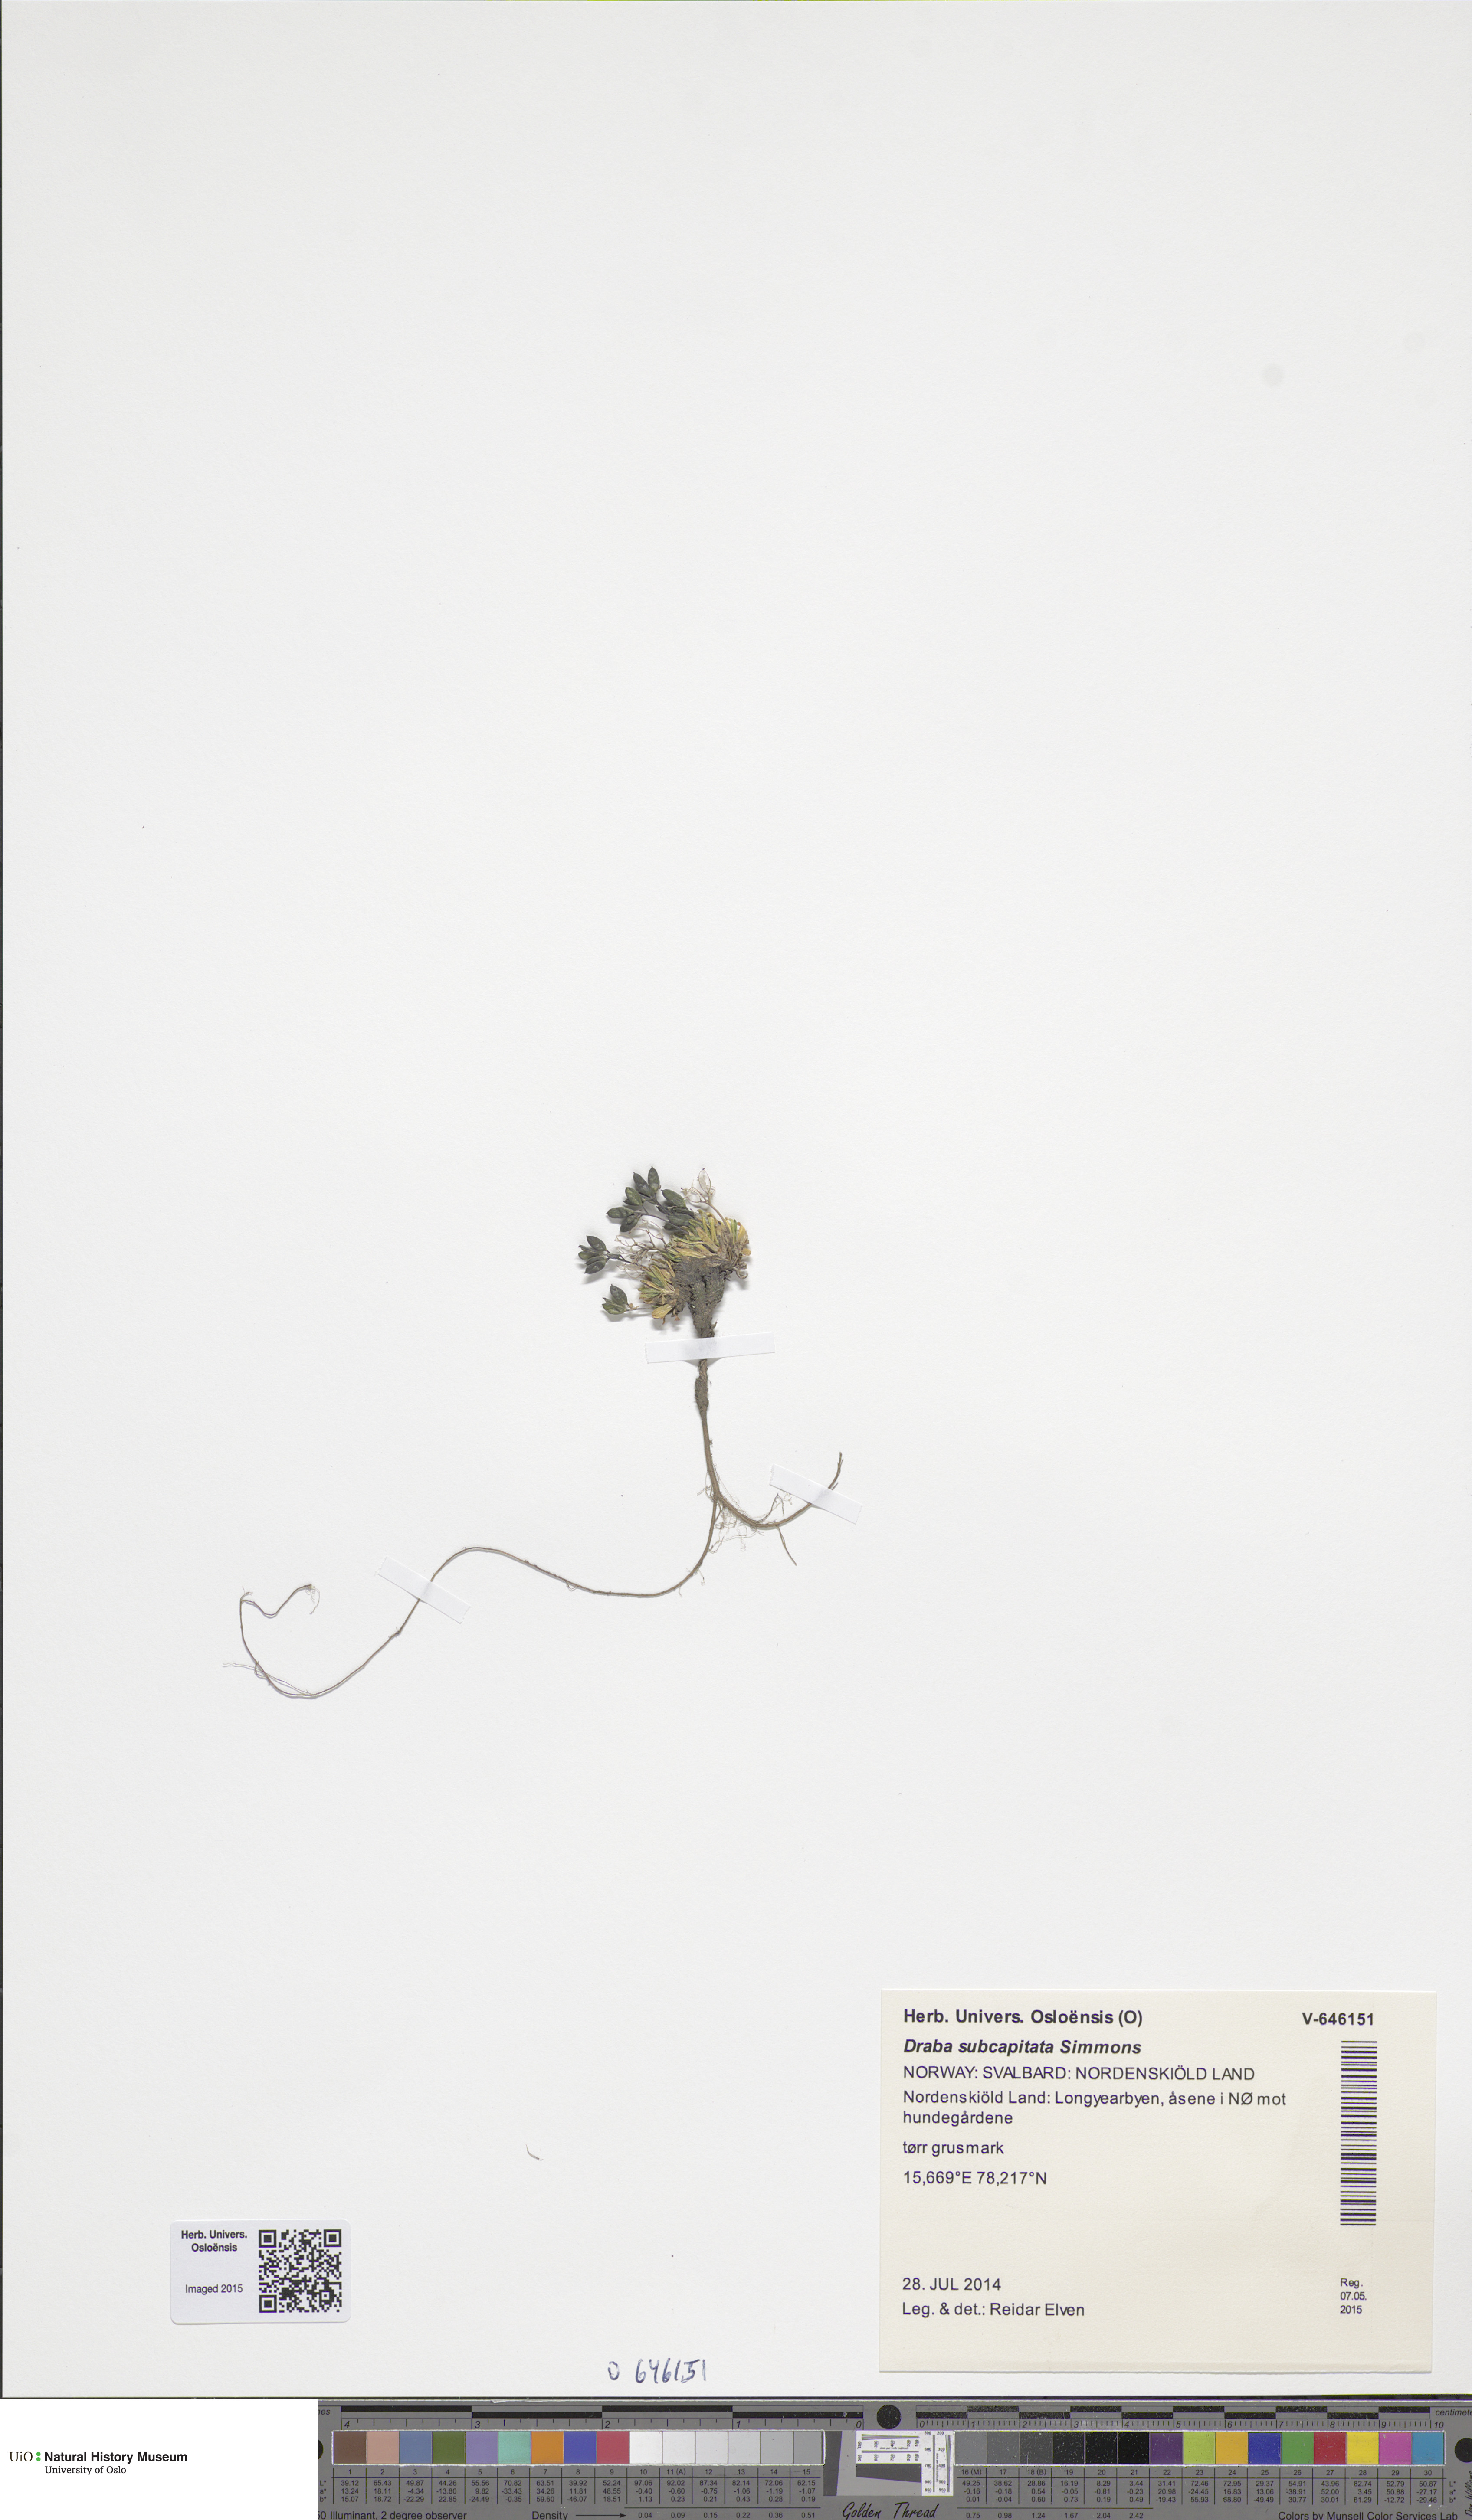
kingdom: Plantae
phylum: Tracheophyta
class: Magnoliopsida
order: Brassicales
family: Brassicaceae
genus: Draba
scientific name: Draba subcapitata
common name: Ellesmere island draba
